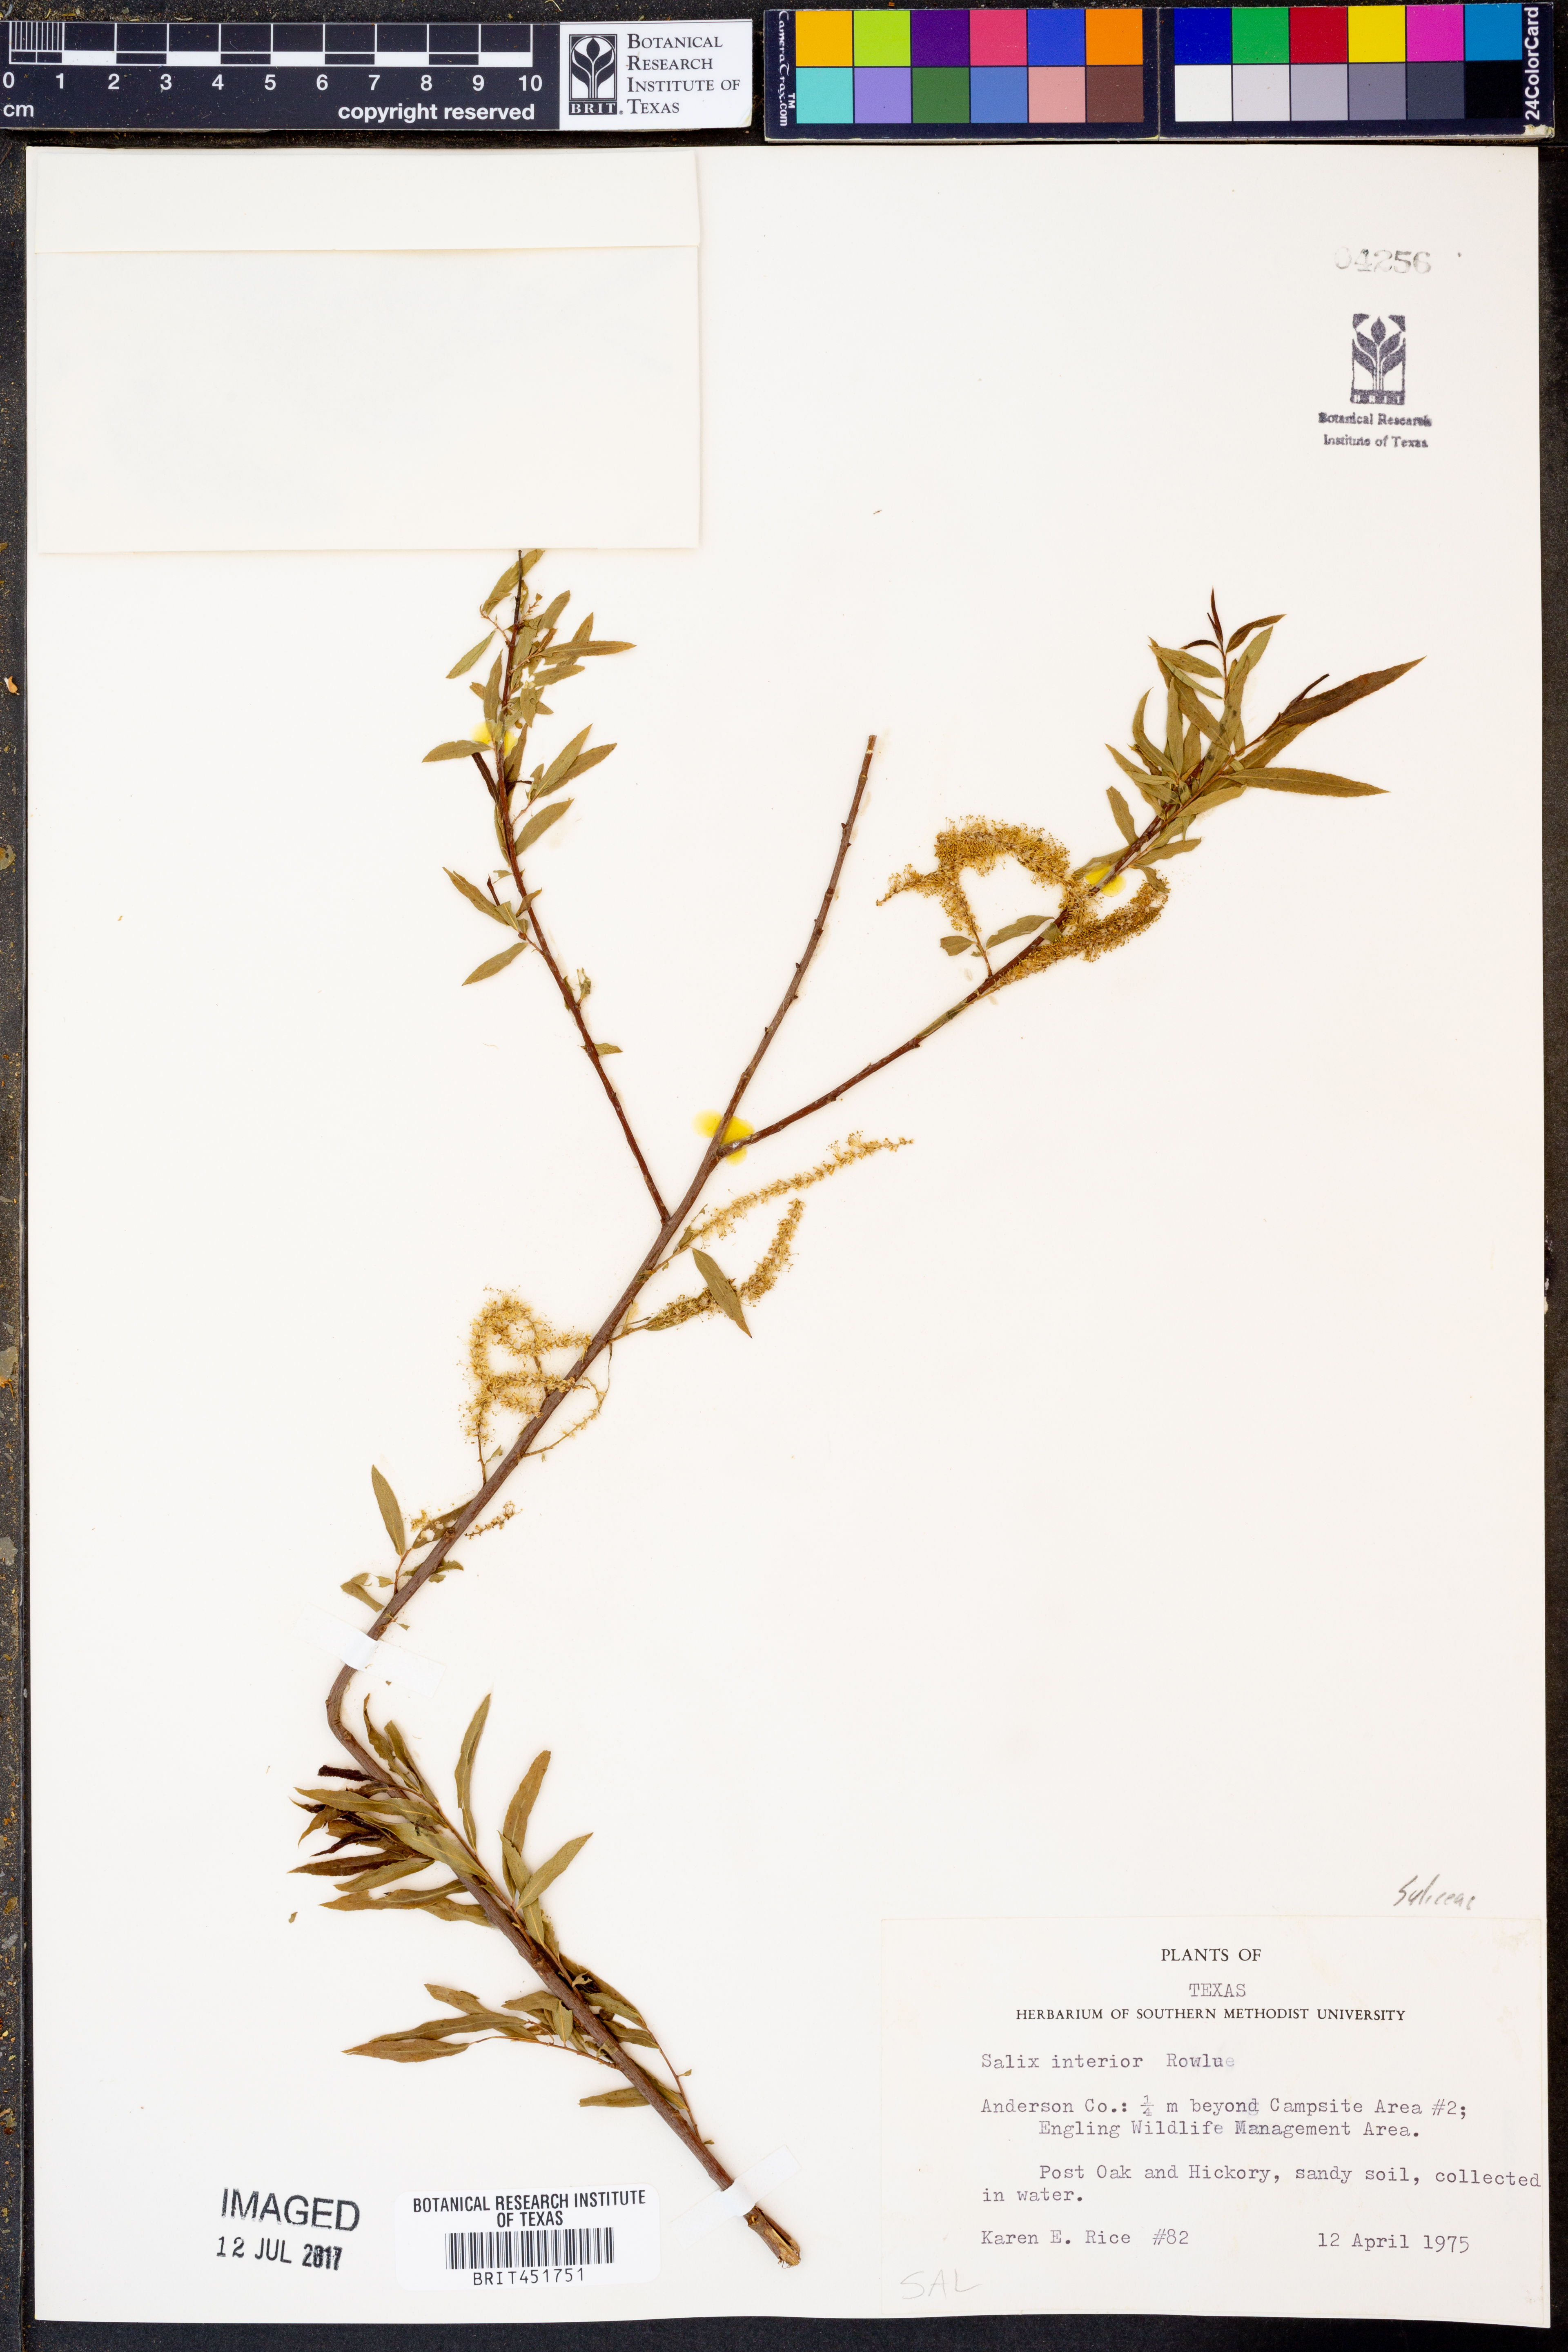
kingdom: Plantae
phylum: Tracheophyta
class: Magnoliopsida
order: Malpighiales
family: Salicaceae
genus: Salix
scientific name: Salix interior
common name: Sandbar willow
